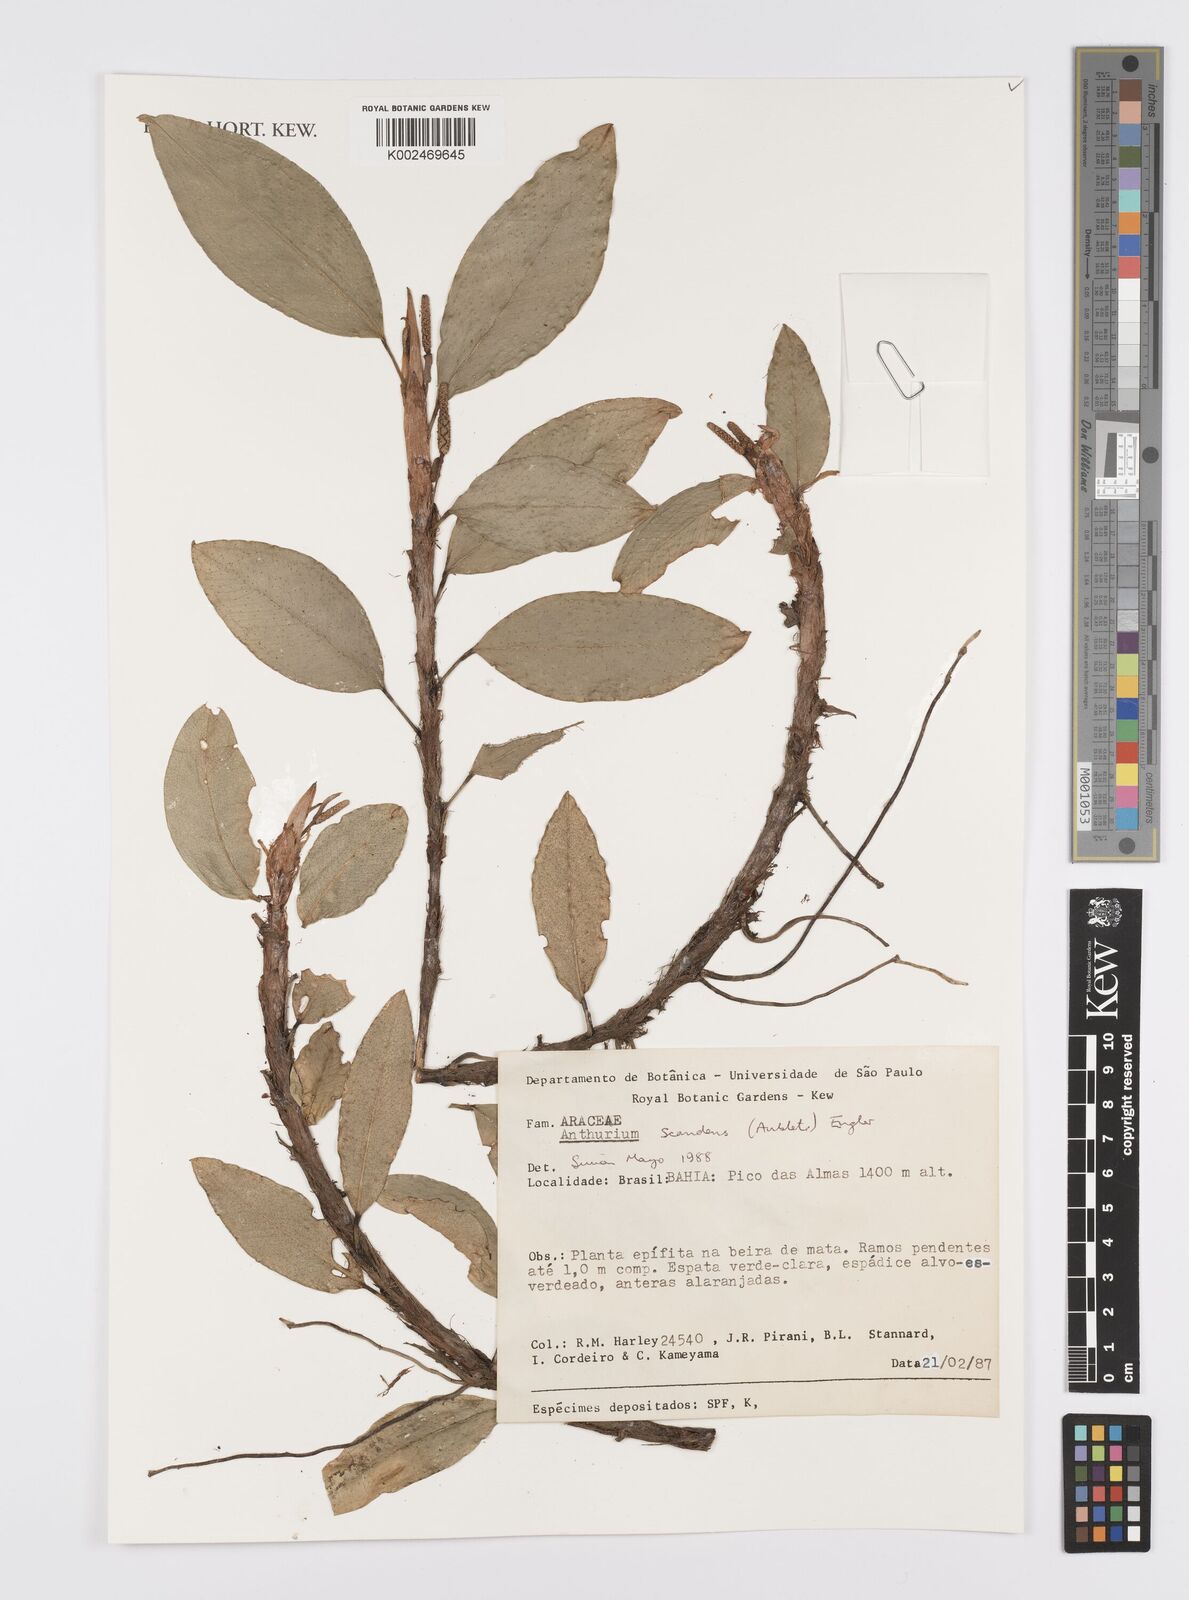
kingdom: Plantae
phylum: Tracheophyta
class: Liliopsida
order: Alismatales
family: Araceae
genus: Anthurium
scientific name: Anthurium scandens
